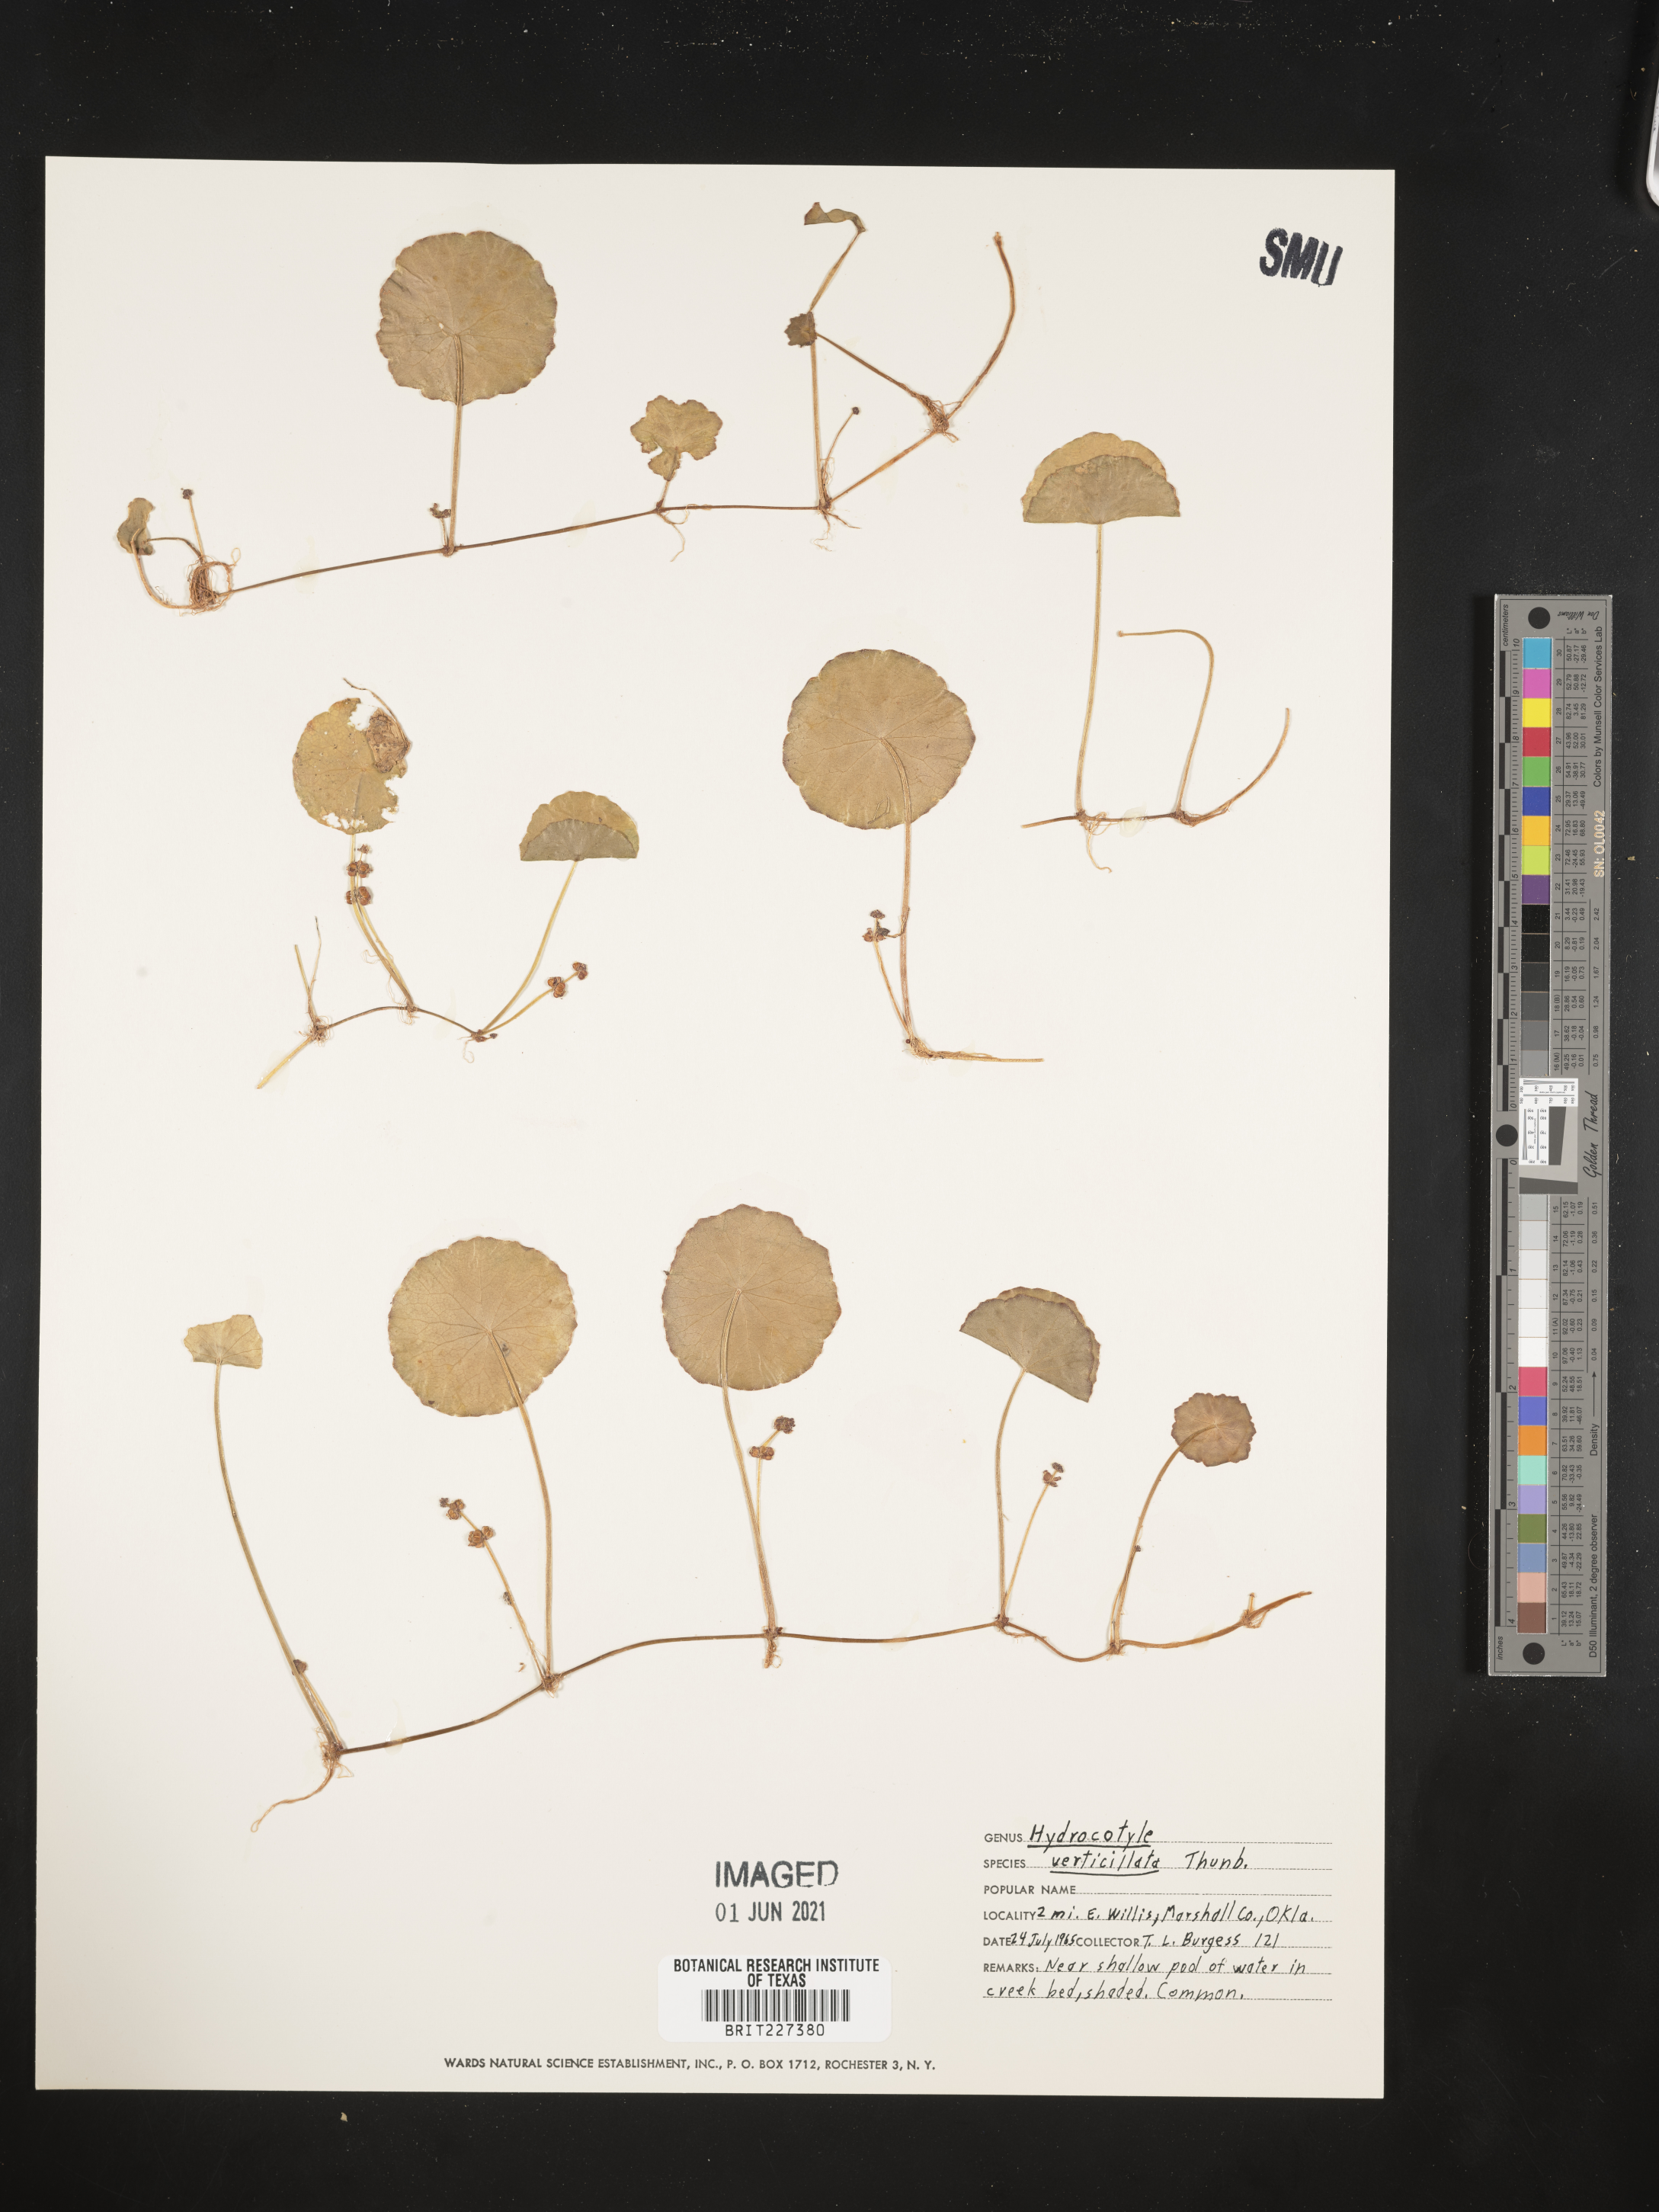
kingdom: Plantae
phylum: Tracheophyta
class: Magnoliopsida
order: Apiales
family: Araliaceae
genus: Hydrocotyle
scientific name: Hydrocotyle verticillata
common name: Whorled marshpennywort
